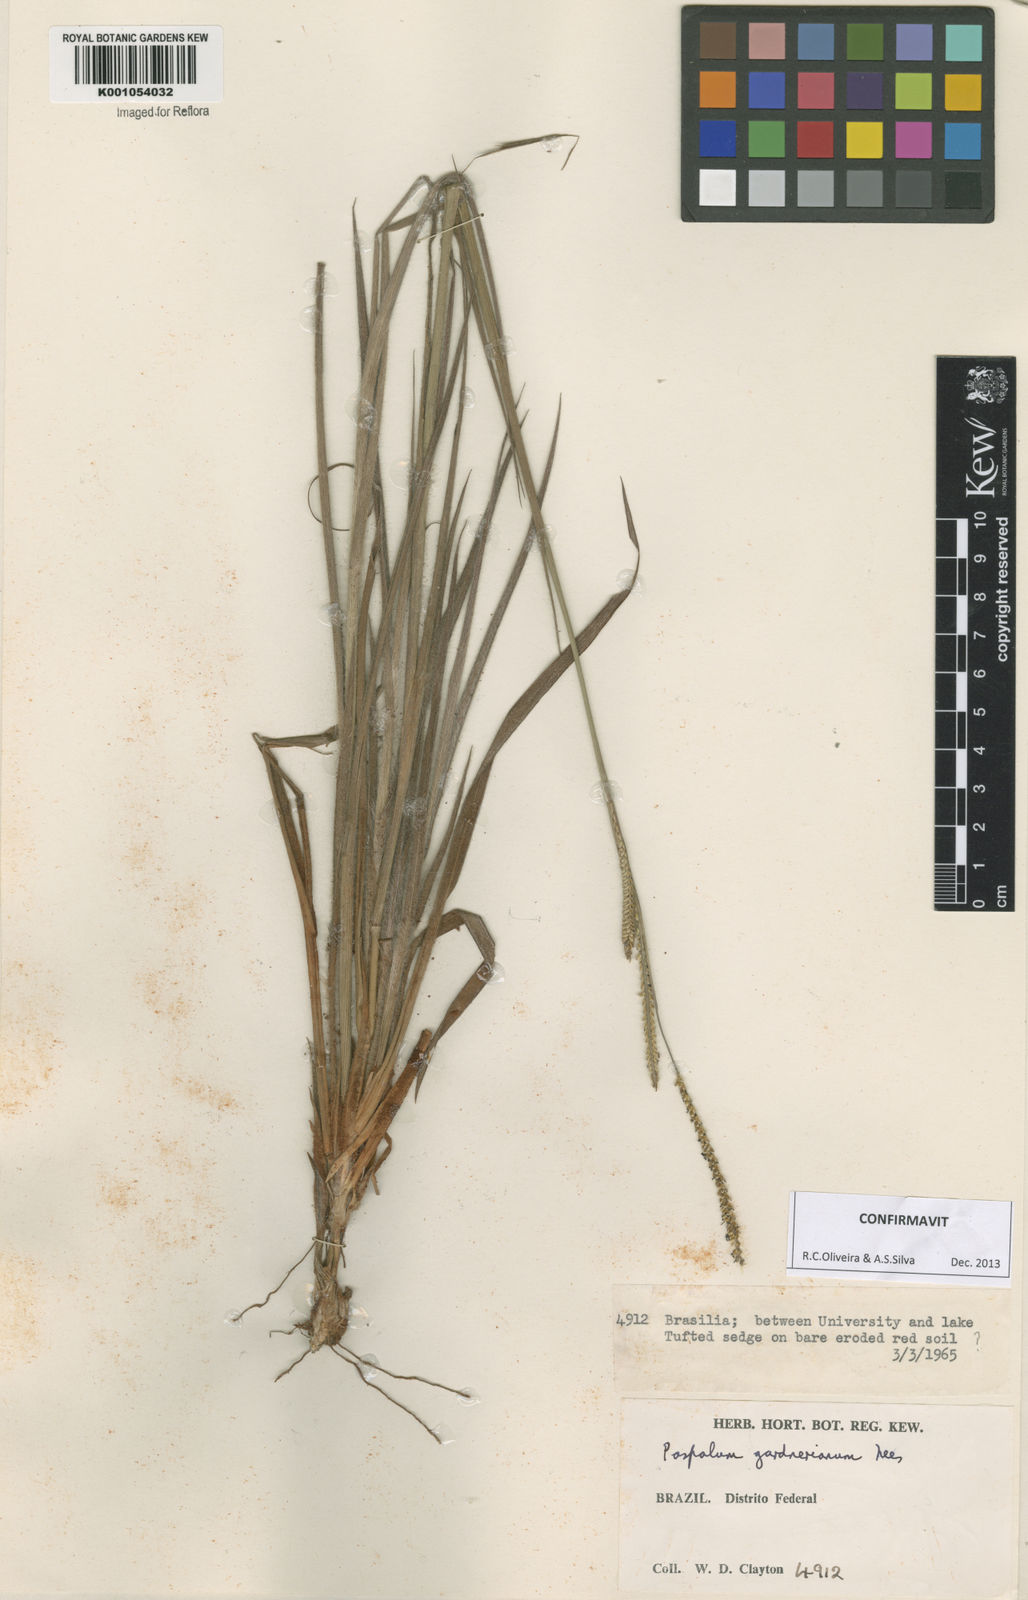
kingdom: Plantae
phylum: Tracheophyta
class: Liliopsida
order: Poales
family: Poaceae
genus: Paspalum
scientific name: Paspalum gardnerianum
